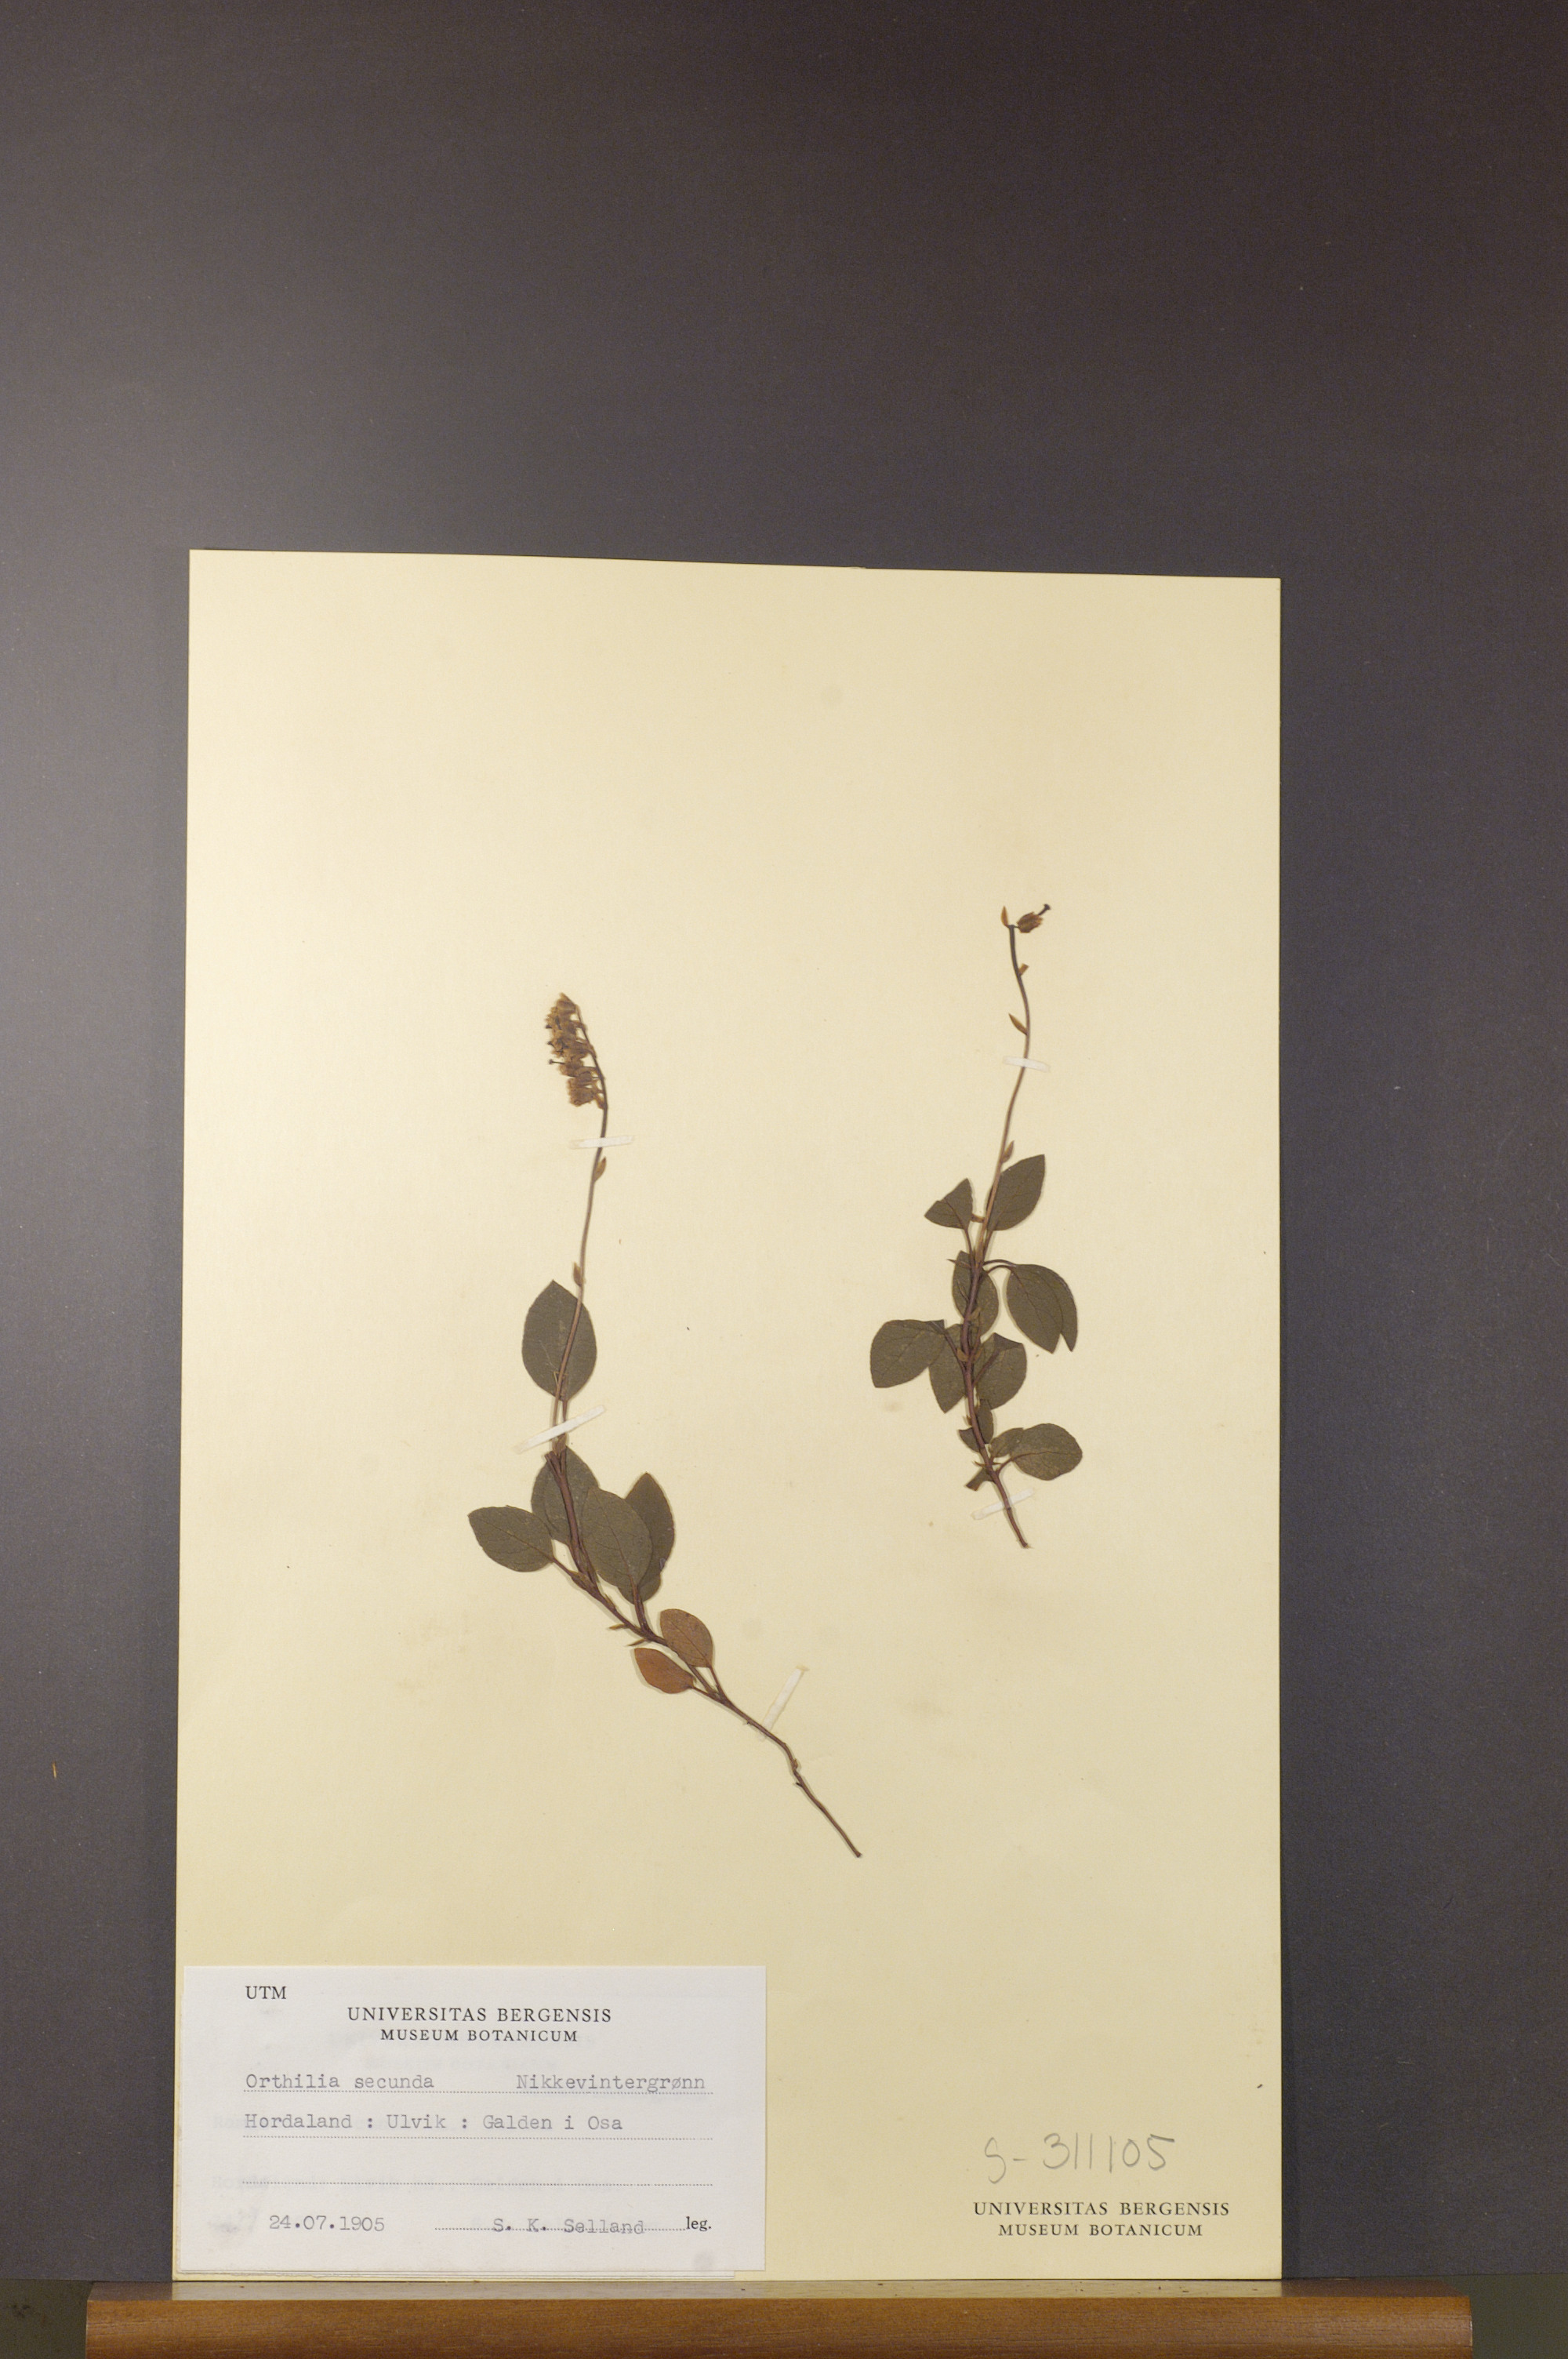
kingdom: Plantae
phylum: Tracheophyta
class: Magnoliopsida
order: Ericales
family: Ericaceae
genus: Orthilia
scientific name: Orthilia secunda
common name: One-sided orthilia
